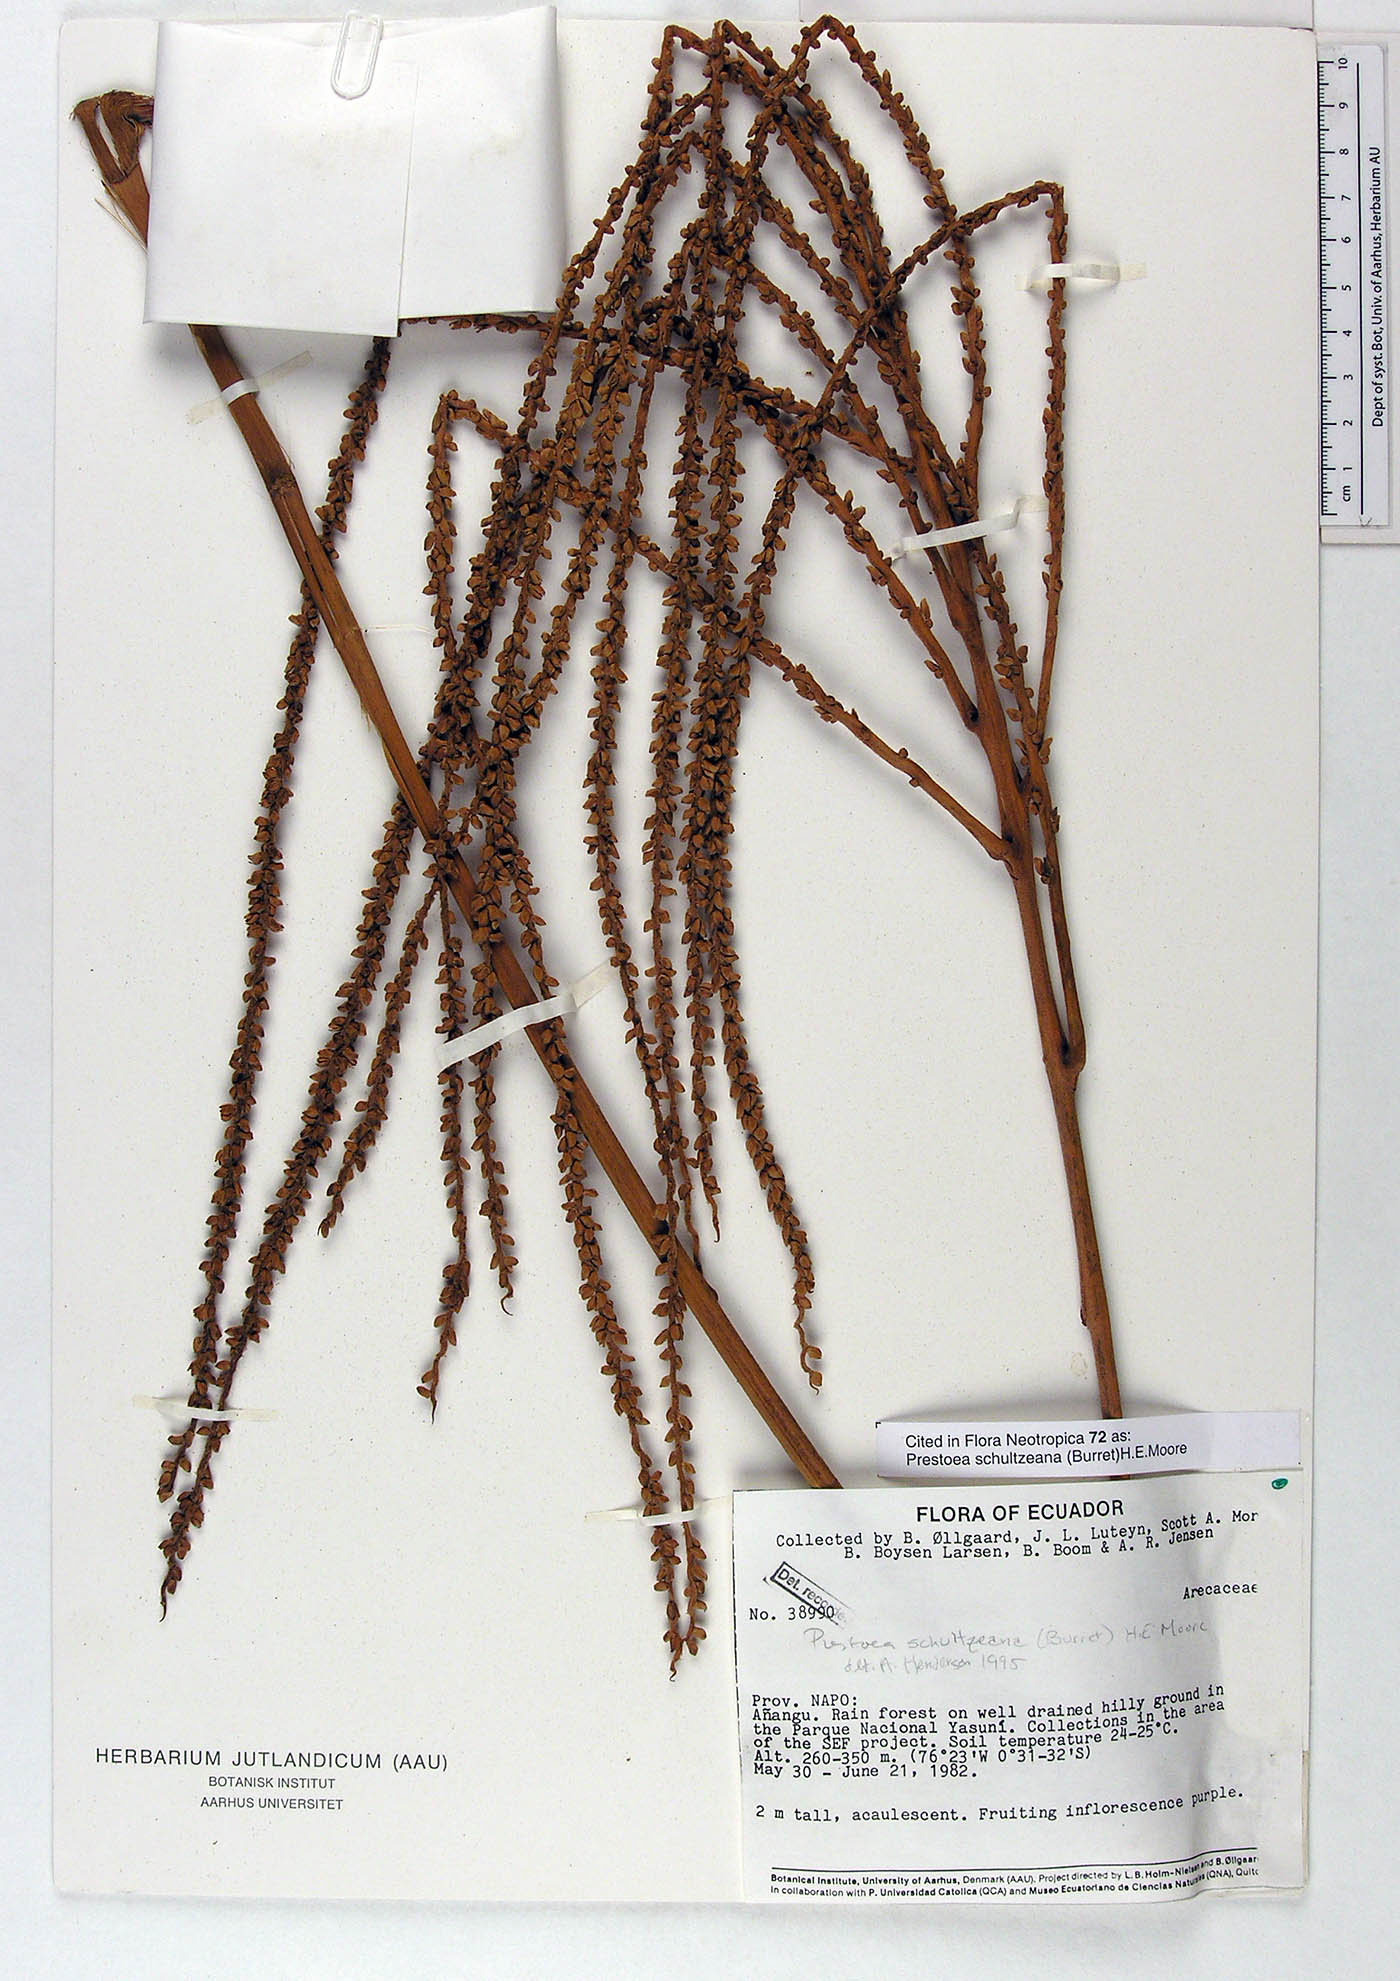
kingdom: Plantae
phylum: Tracheophyta
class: Liliopsida
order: Arecales
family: Arecaceae
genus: Prestoea
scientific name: Prestoea schultzeana
